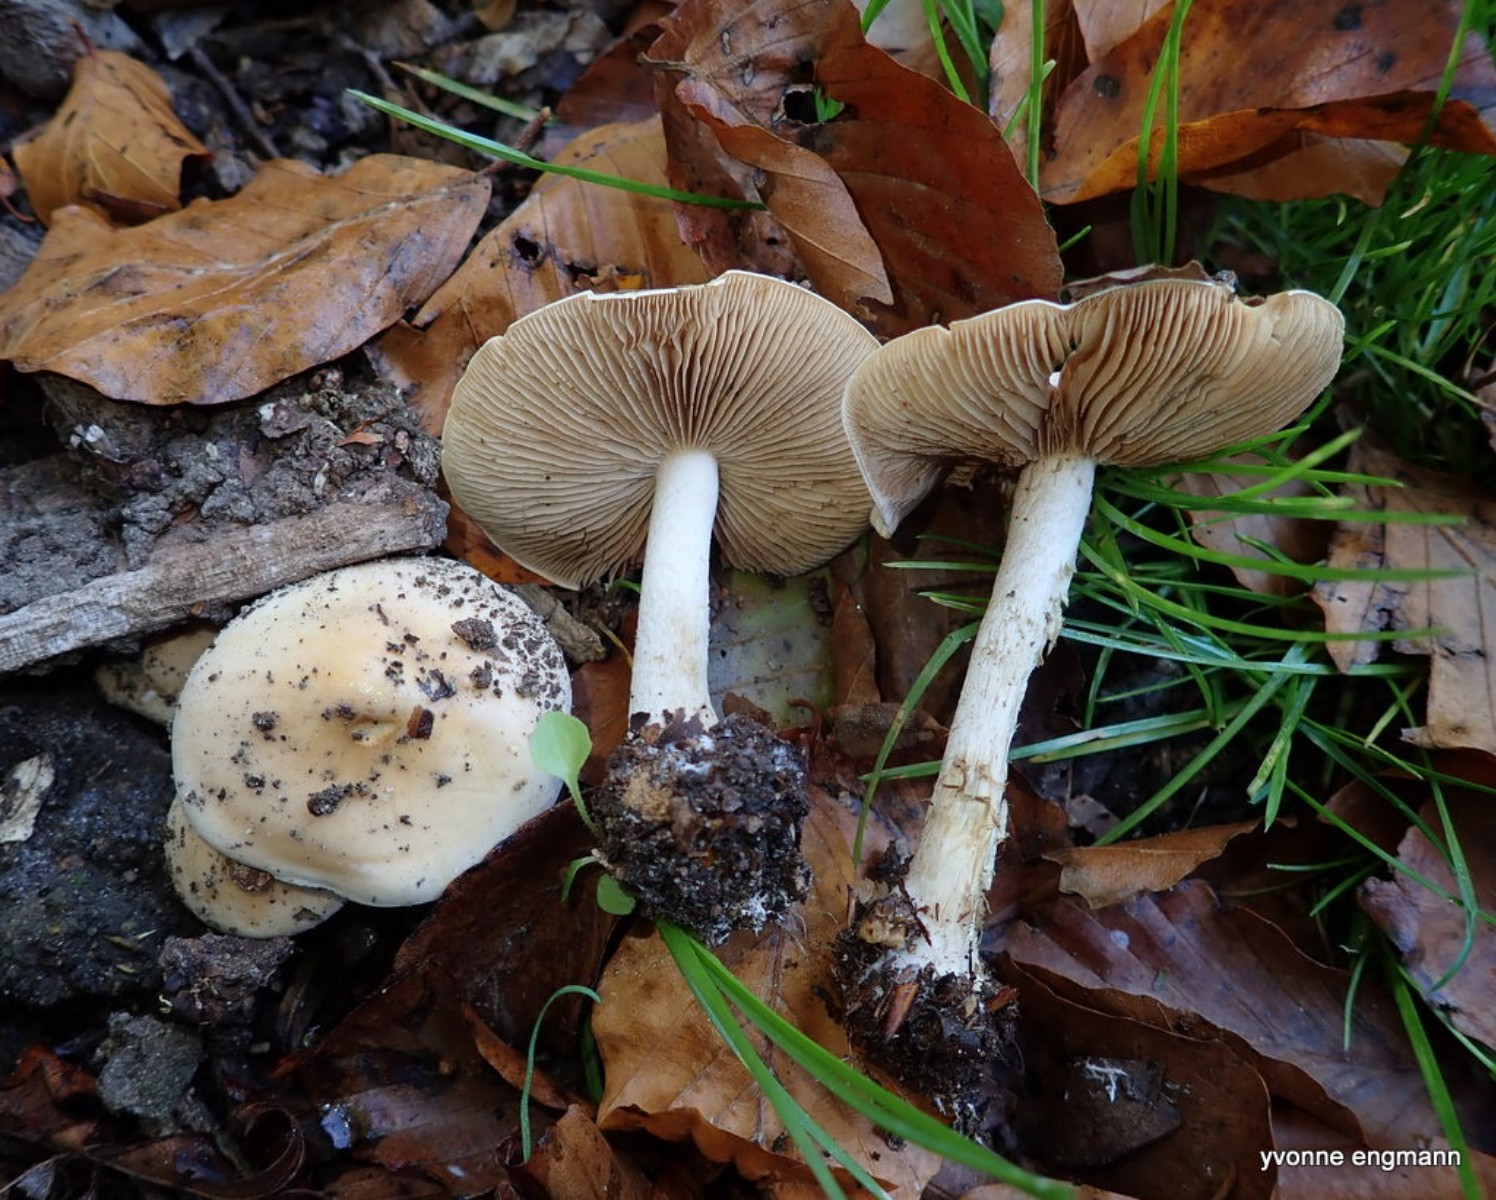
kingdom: Fungi
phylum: Basidiomycota
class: Agaricomycetes
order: Agaricales
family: Hymenogastraceae
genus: Hebeloma
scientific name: Hebeloma
